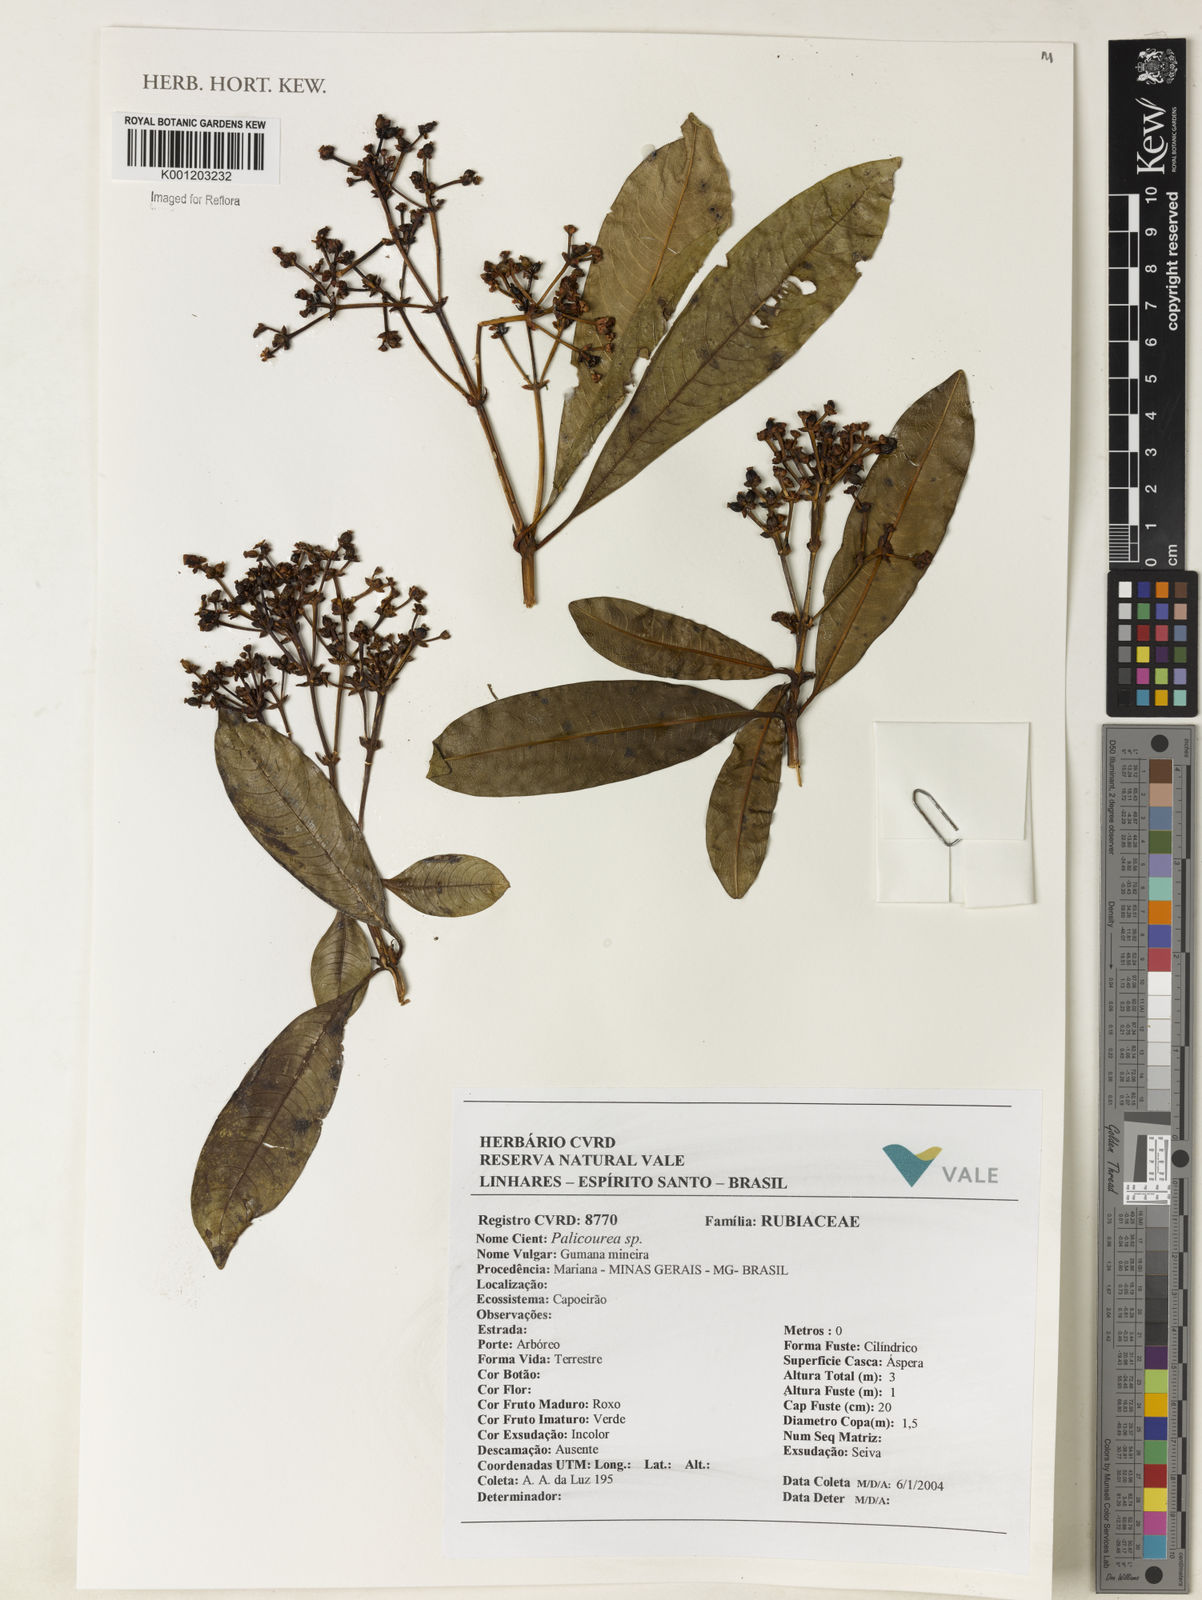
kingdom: Plantae
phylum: Tracheophyta
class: Magnoliopsida
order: Gentianales
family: Rubiaceae
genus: Palicourea
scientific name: Palicourea
